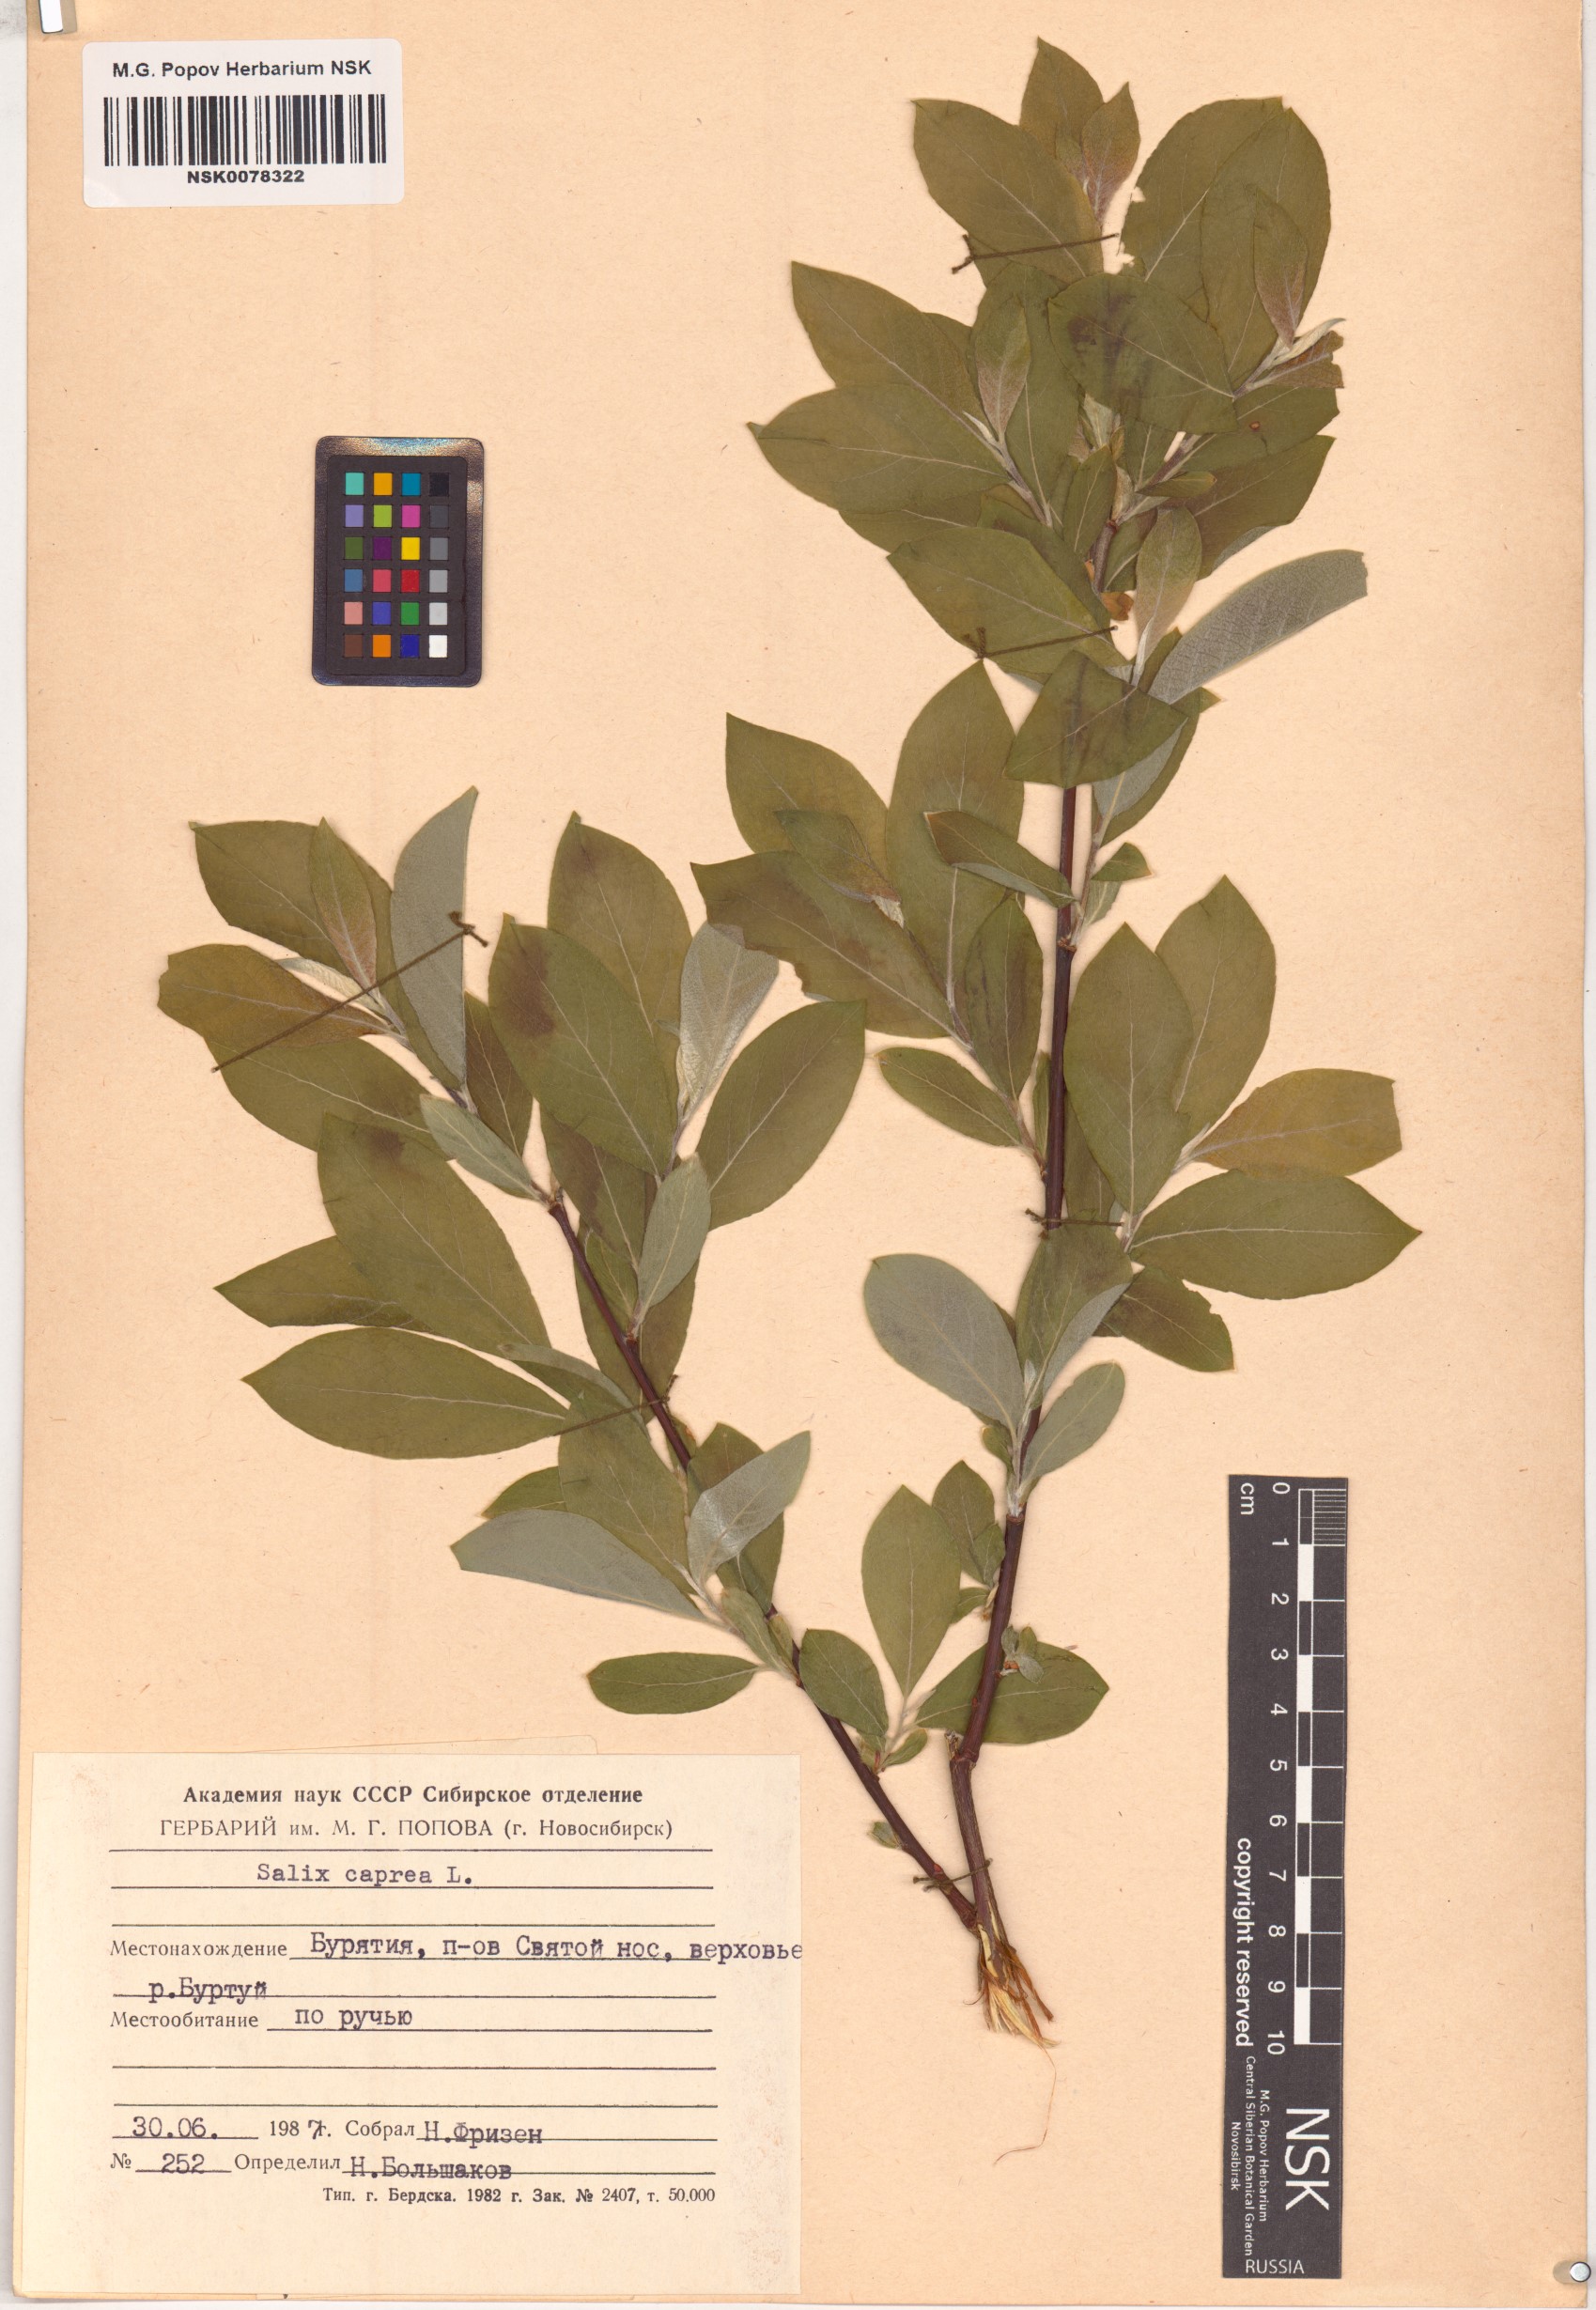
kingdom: Plantae
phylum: Tracheophyta
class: Magnoliopsida
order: Malpighiales
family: Salicaceae
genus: Salix
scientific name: Salix caprea
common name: Goat willow
